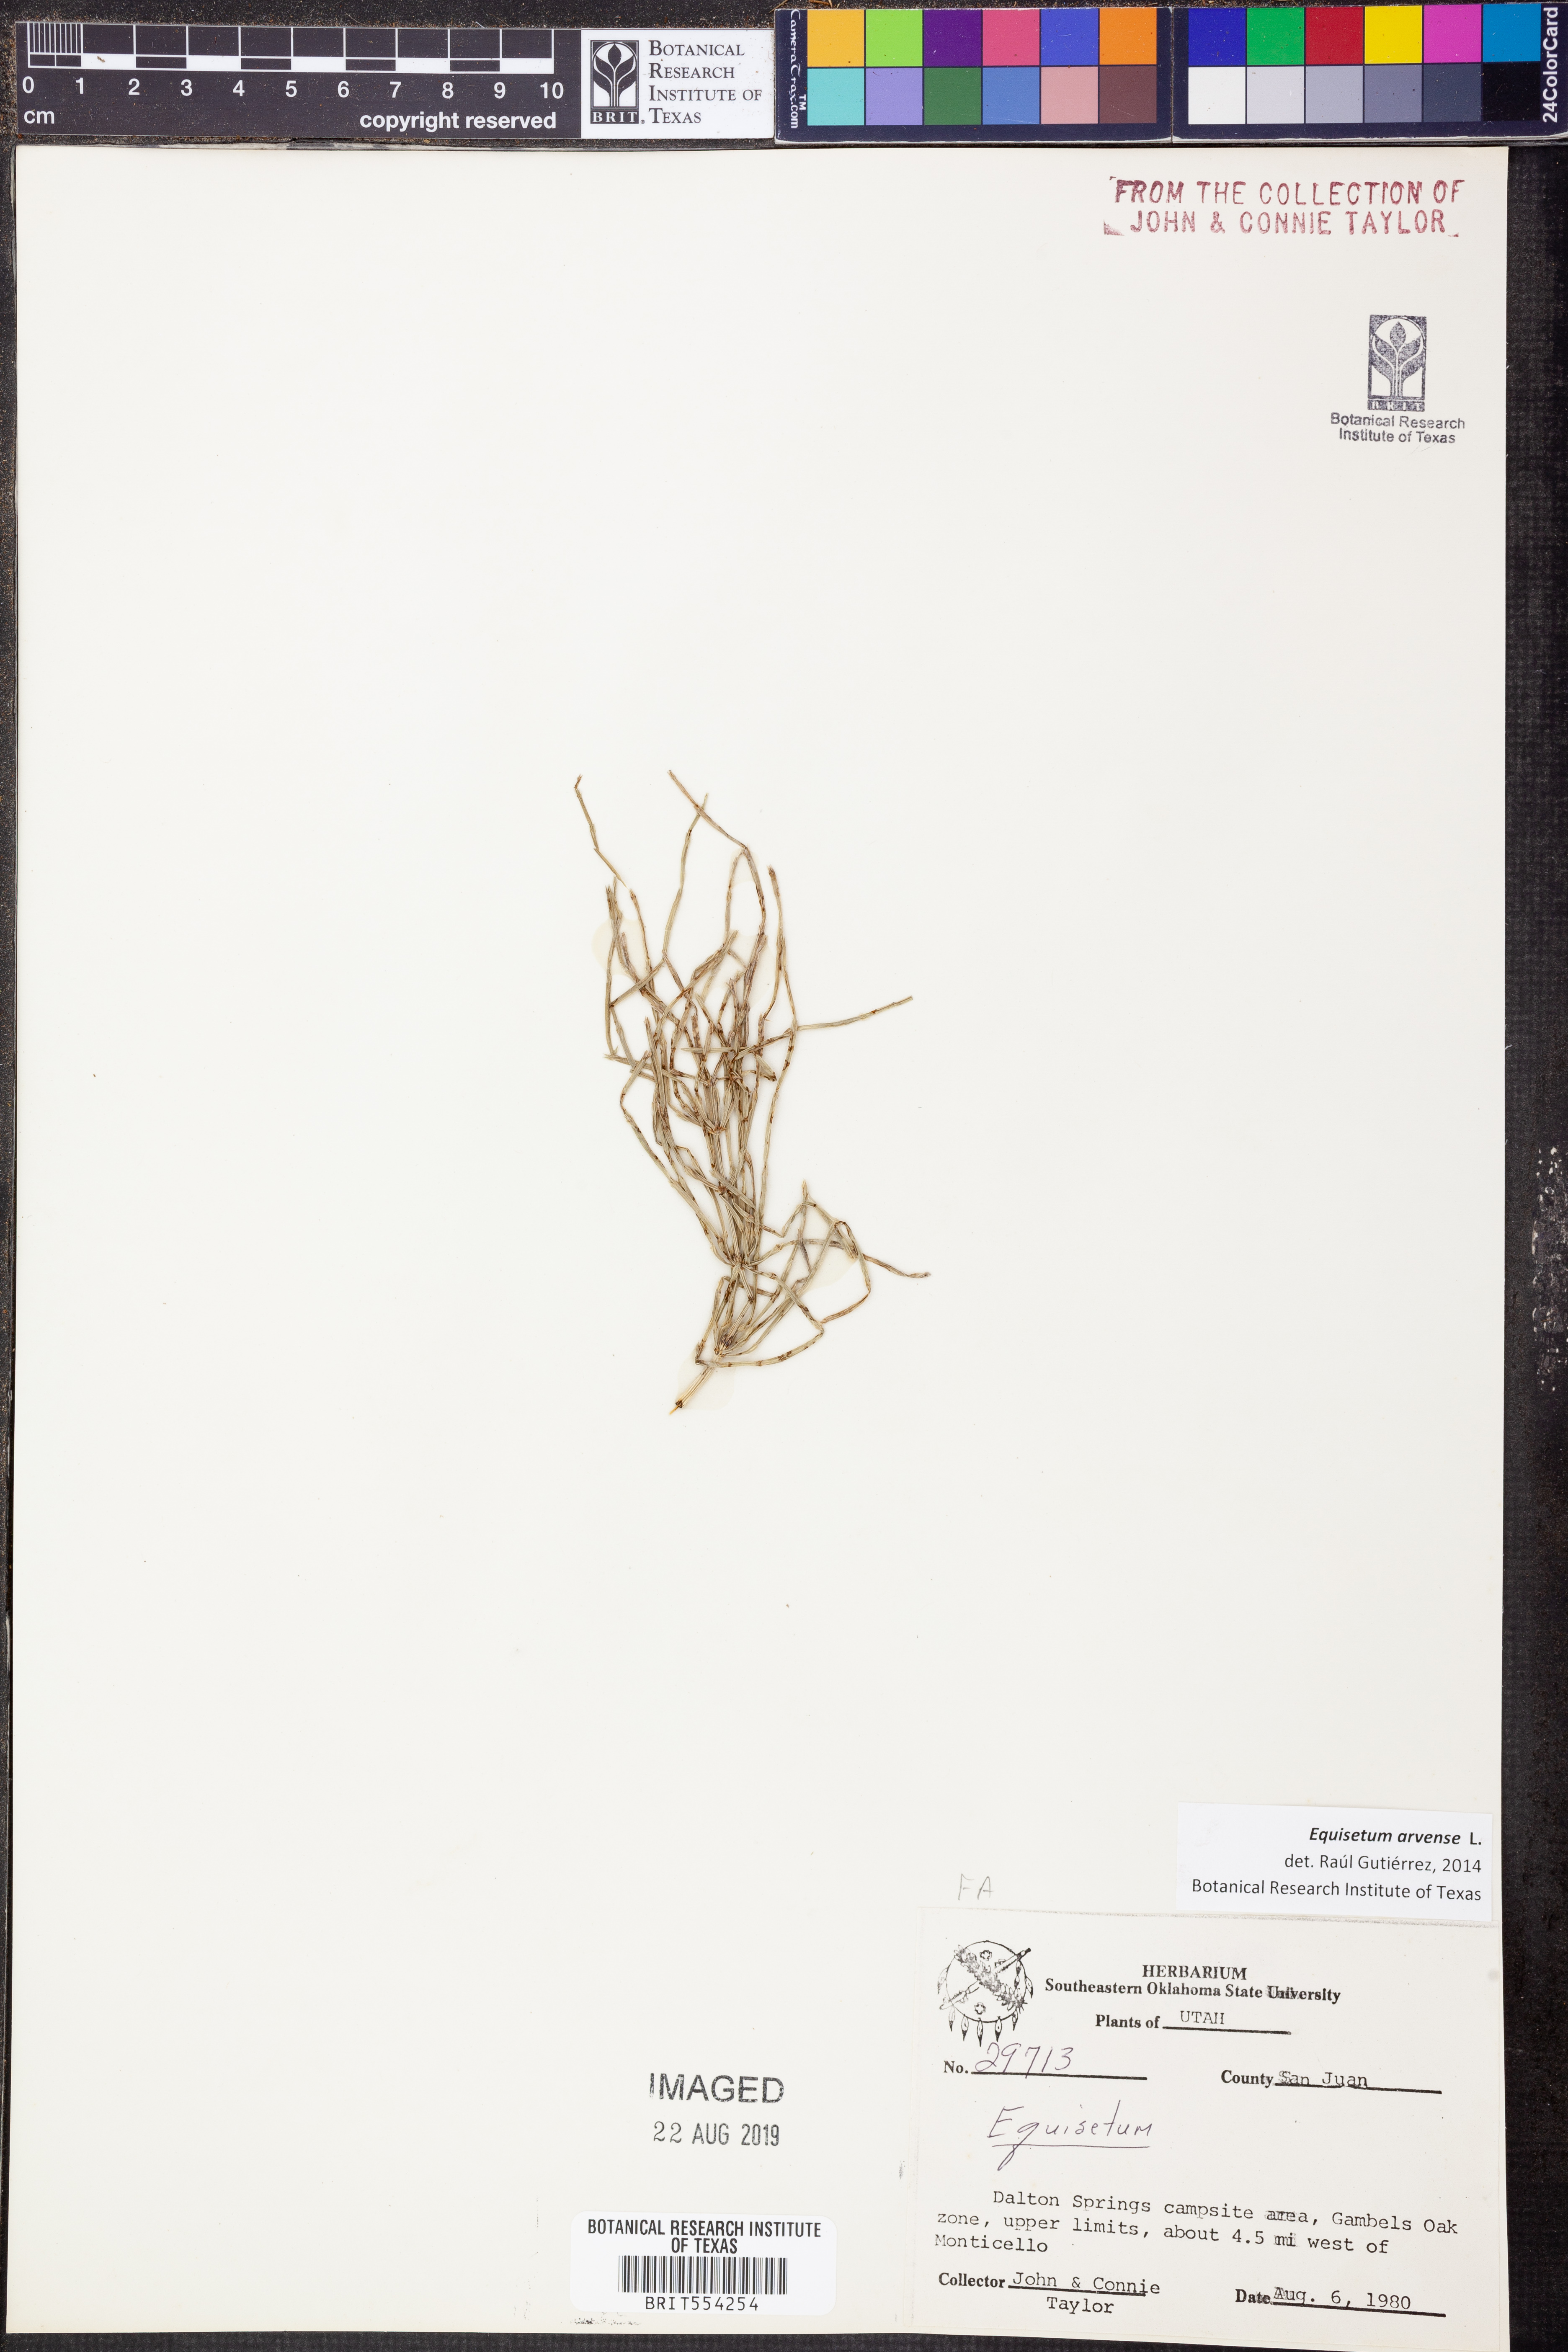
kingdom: Plantae
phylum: Tracheophyta
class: Polypodiopsida
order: Equisetales
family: Equisetaceae
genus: Equisetum
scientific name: Equisetum arvense
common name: Field horsetail
